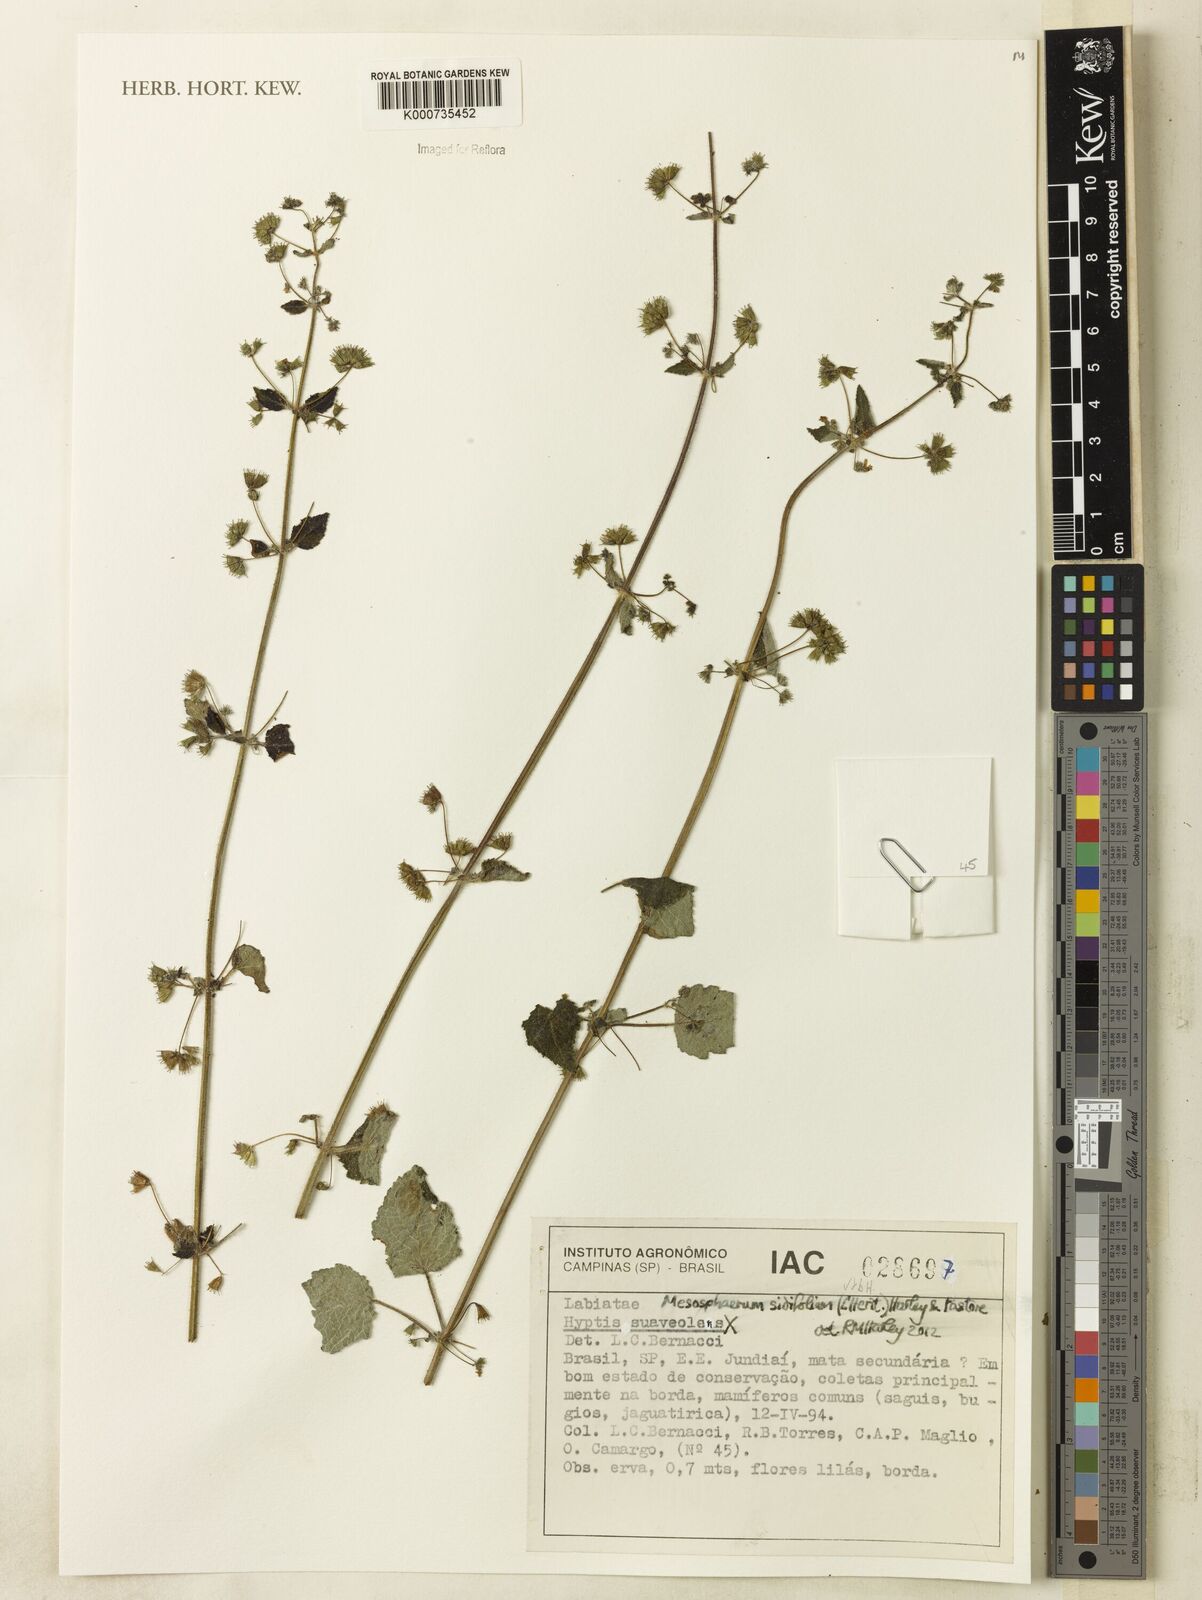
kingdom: Plantae
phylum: Tracheophyta
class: Magnoliopsida
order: Lamiales
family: Lamiaceae
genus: Mesosphaerum
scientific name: Mesosphaerum sidifolium
